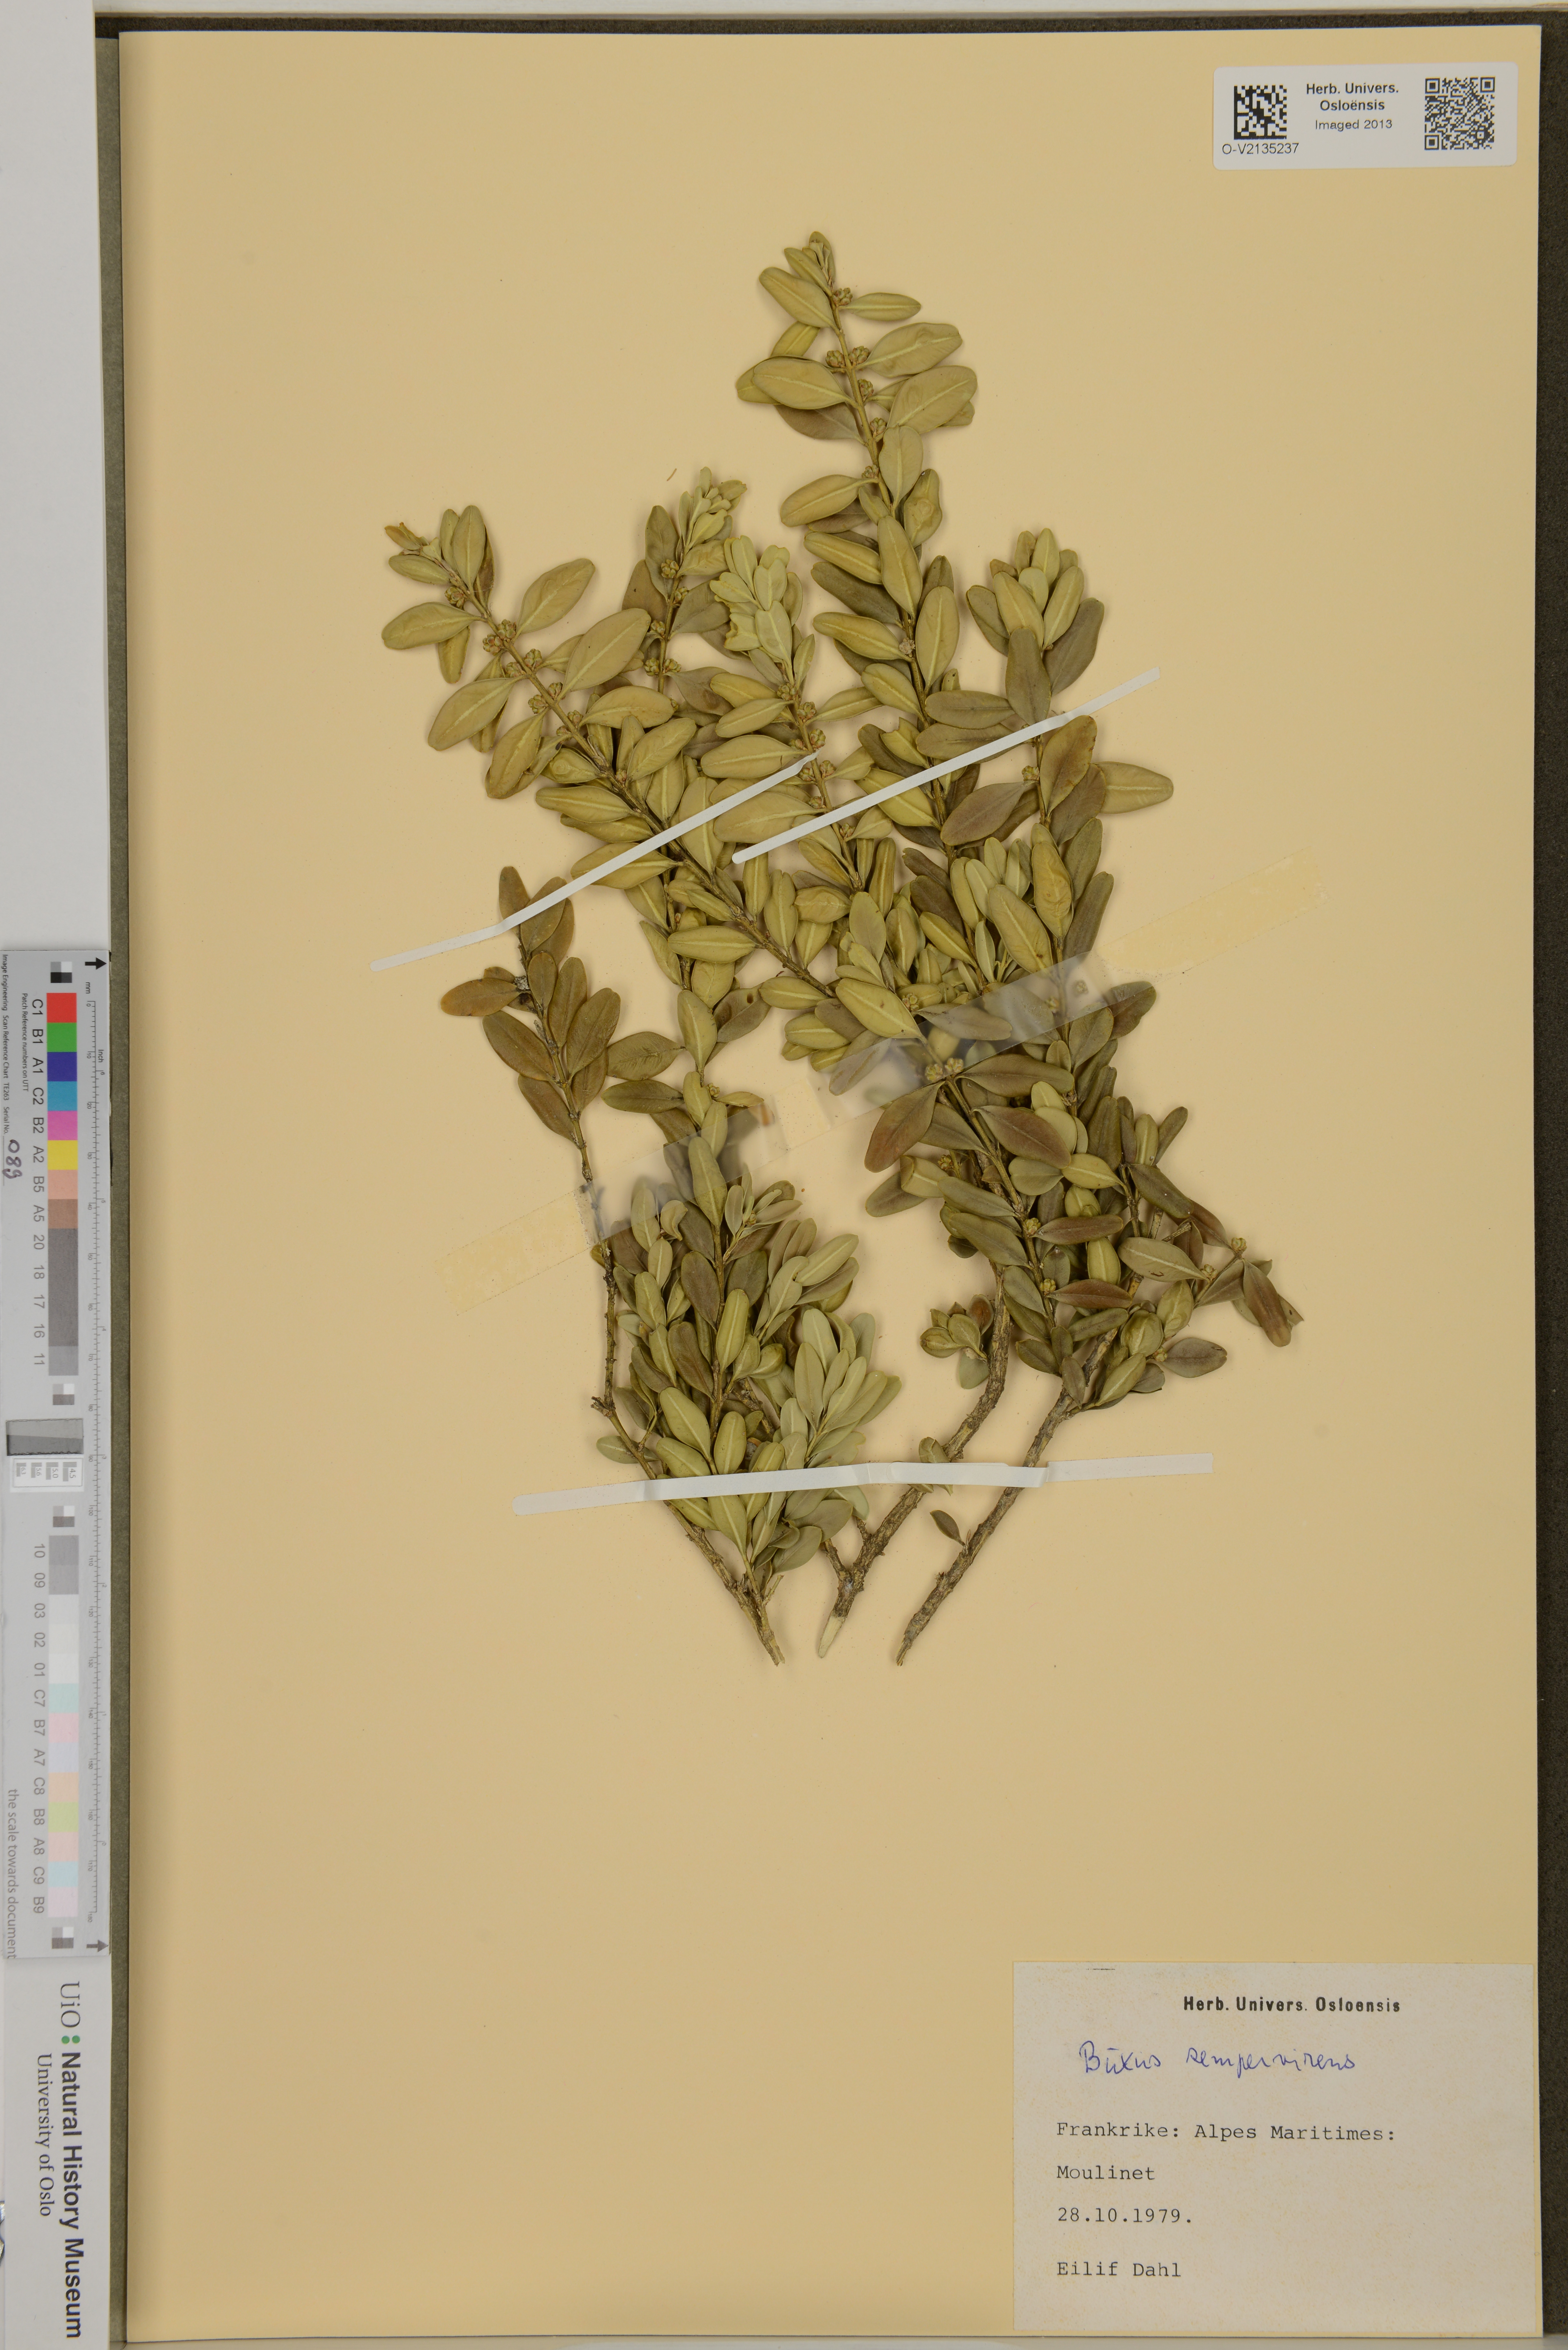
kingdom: Plantae
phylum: Tracheophyta
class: Magnoliopsida
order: Buxales
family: Buxaceae
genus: Buxus
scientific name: Buxus sempervirens
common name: Box
